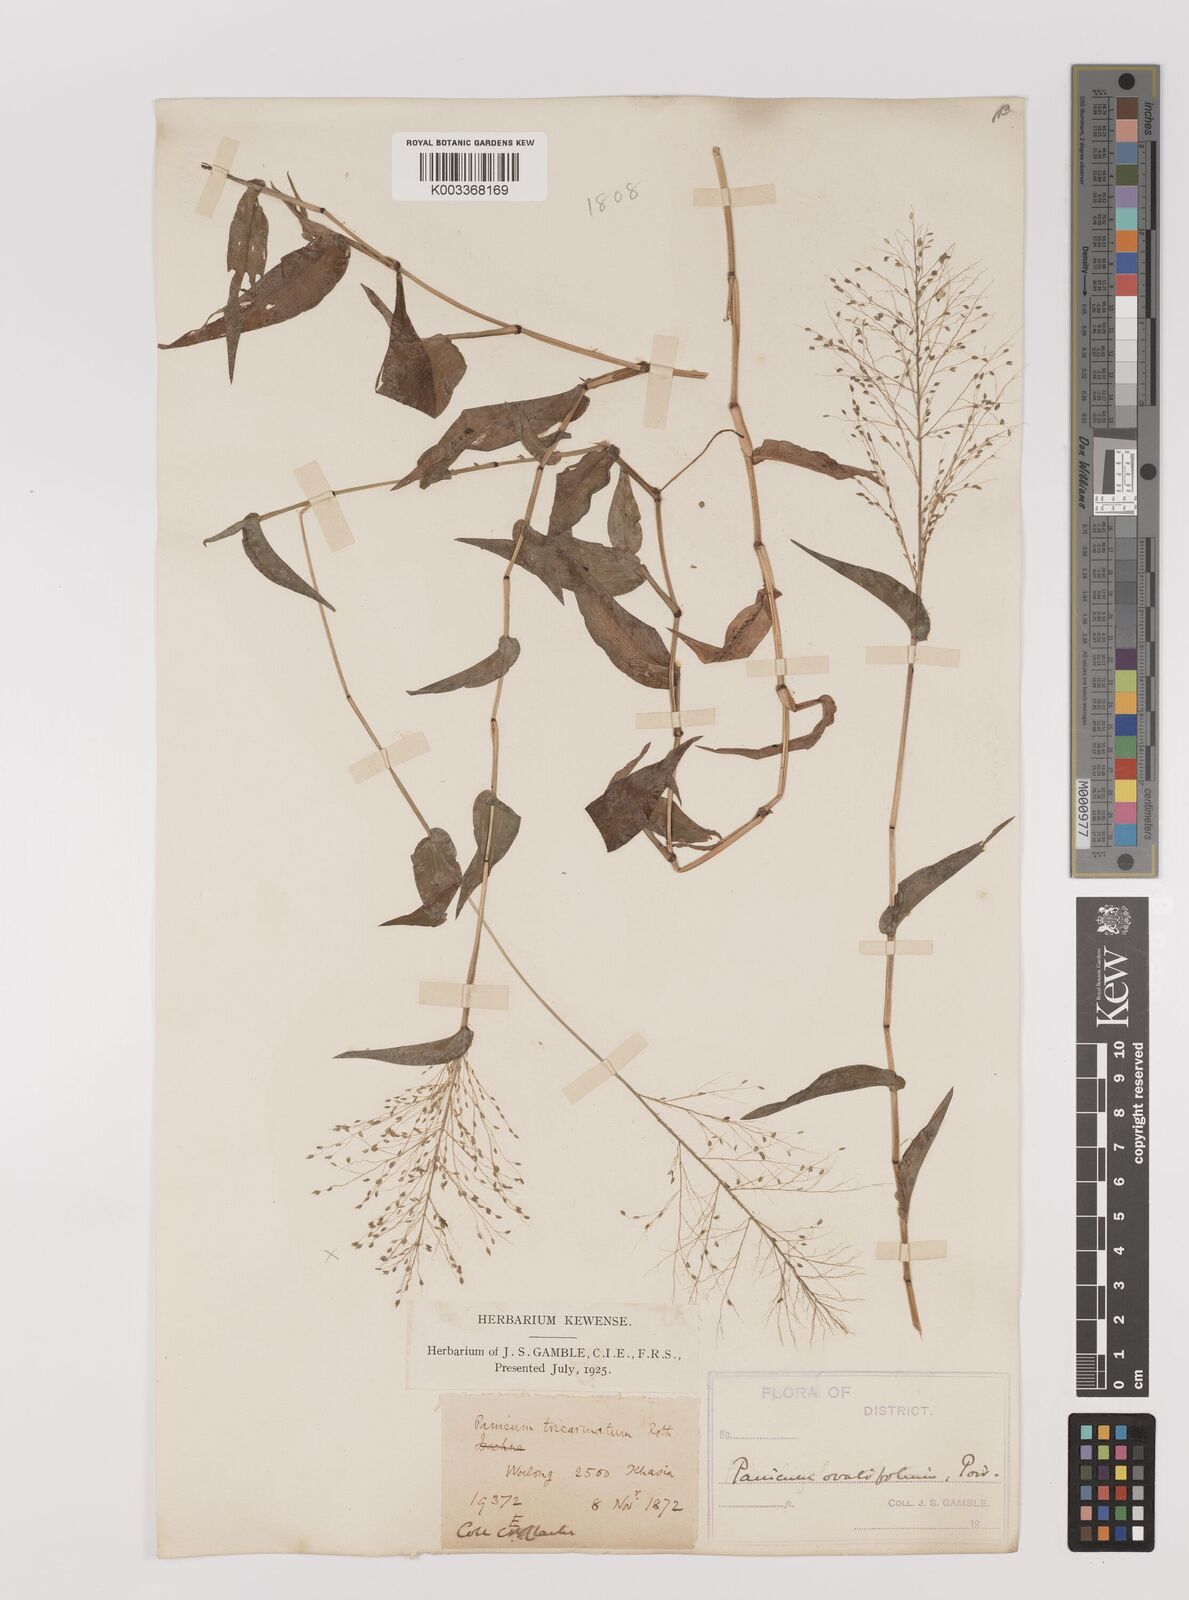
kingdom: Plantae
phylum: Tracheophyta
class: Liliopsida
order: Poales
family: Poaceae
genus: Panicum
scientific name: Panicum brevifolium
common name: Shortleaf panic grass
